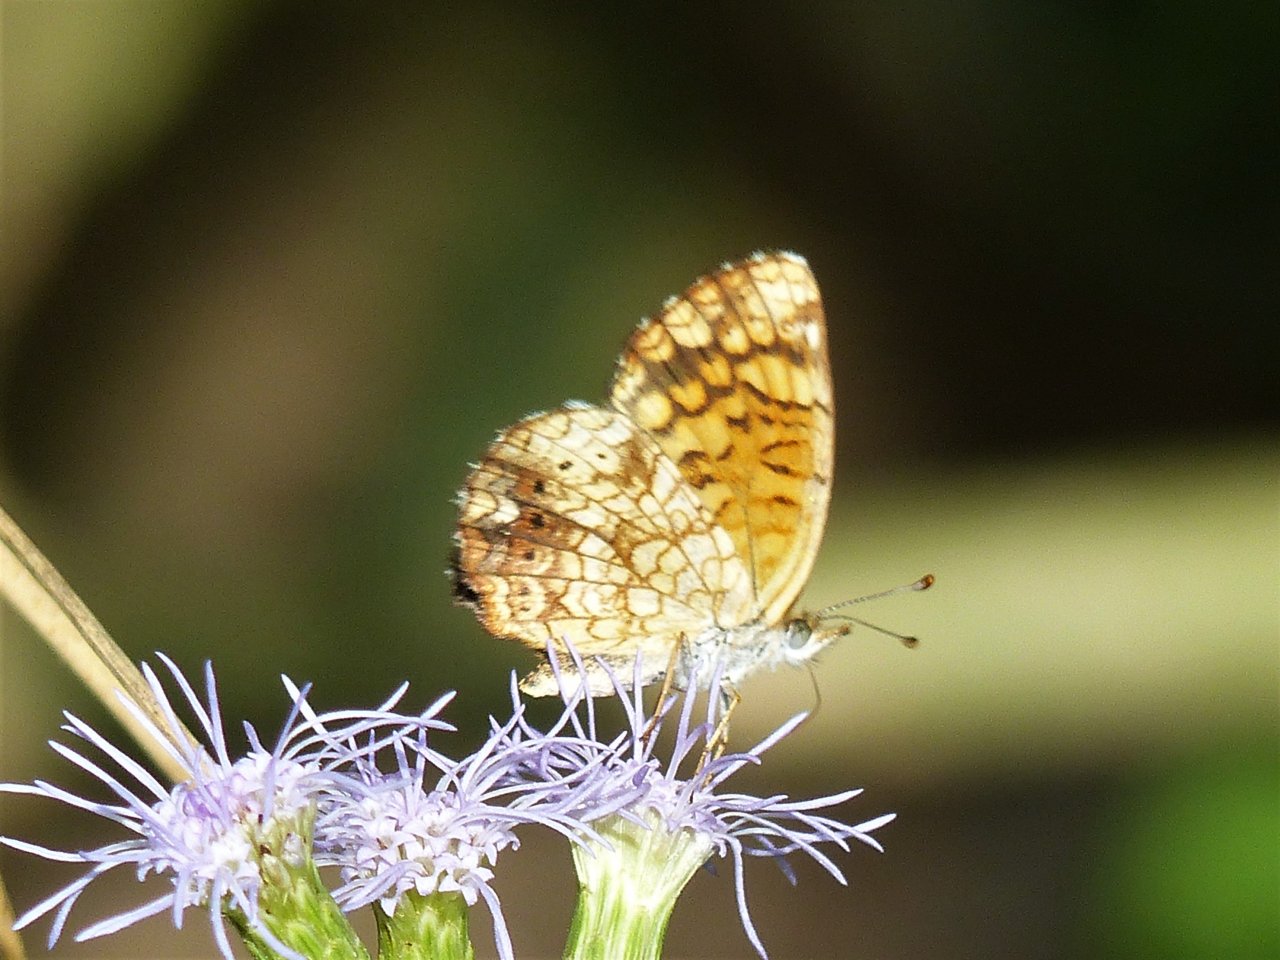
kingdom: Animalia
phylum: Arthropoda
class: Insecta
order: Lepidoptera
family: Nymphalidae
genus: Phyciodes
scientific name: Phyciodes vesta
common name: Vesta Crescent
